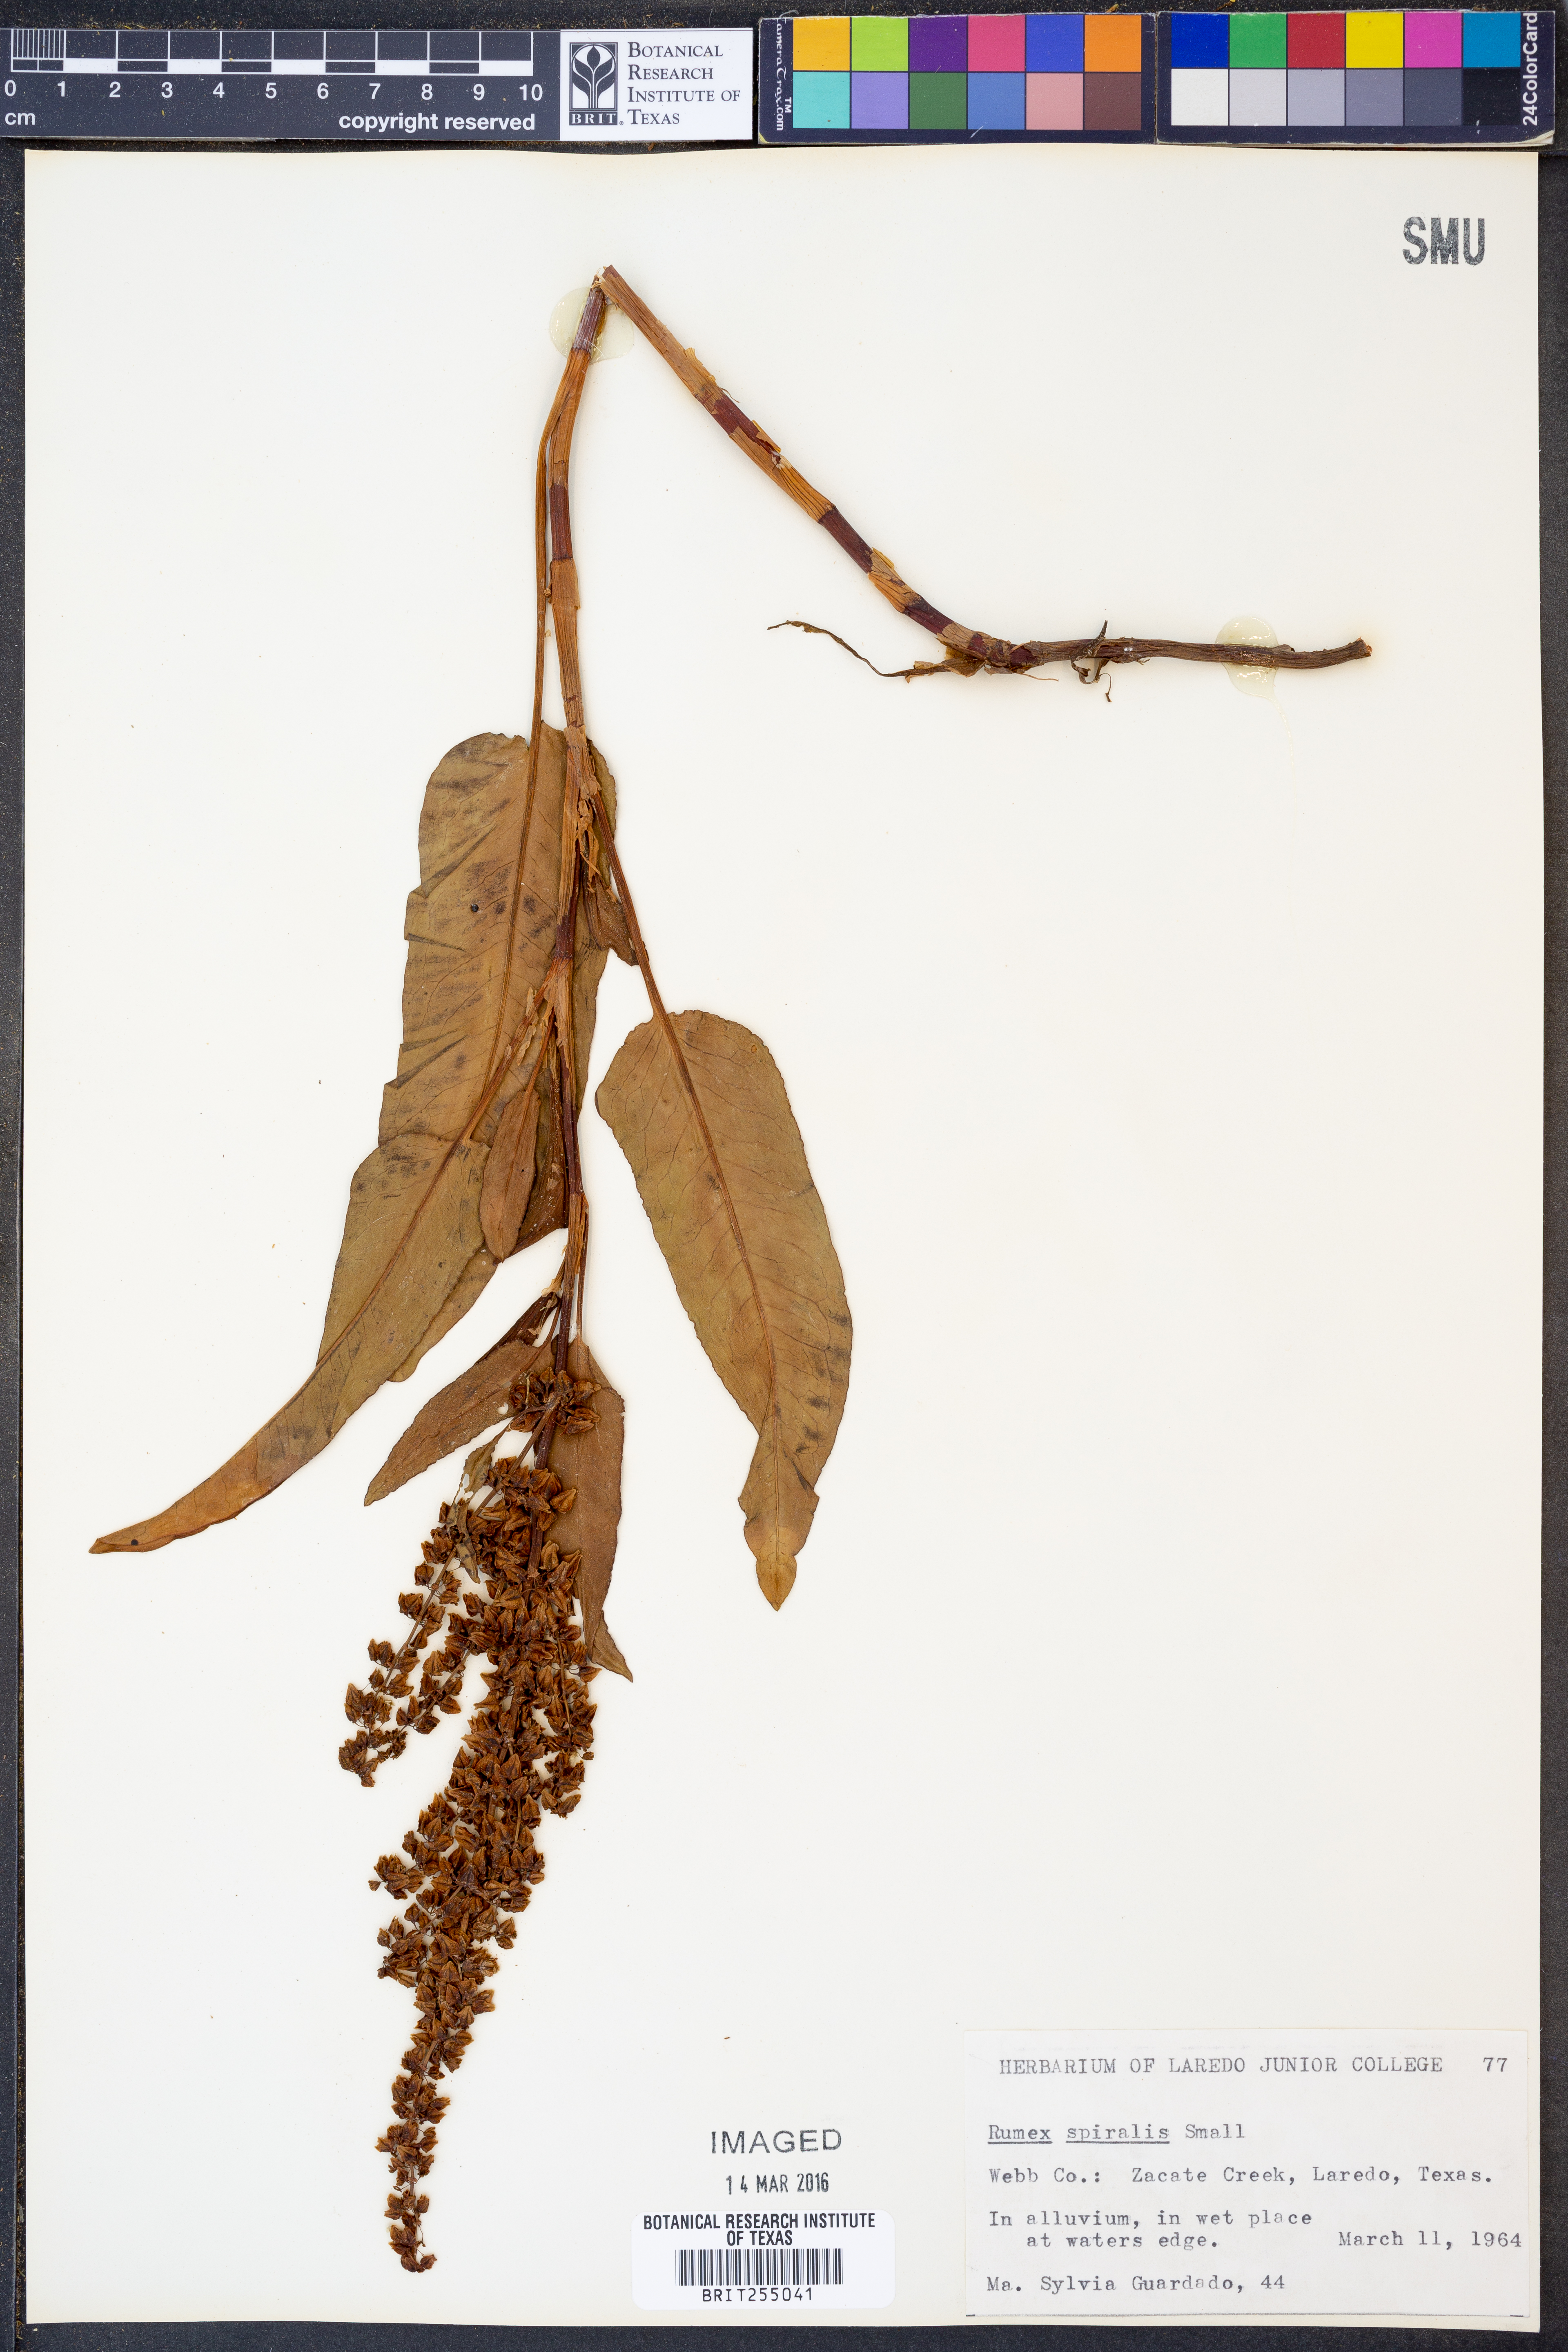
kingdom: Plantae
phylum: Tracheophyta
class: Magnoliopsida
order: Caryophyllales
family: Polygonaceae
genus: Rumex
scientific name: Rumex spiralis
